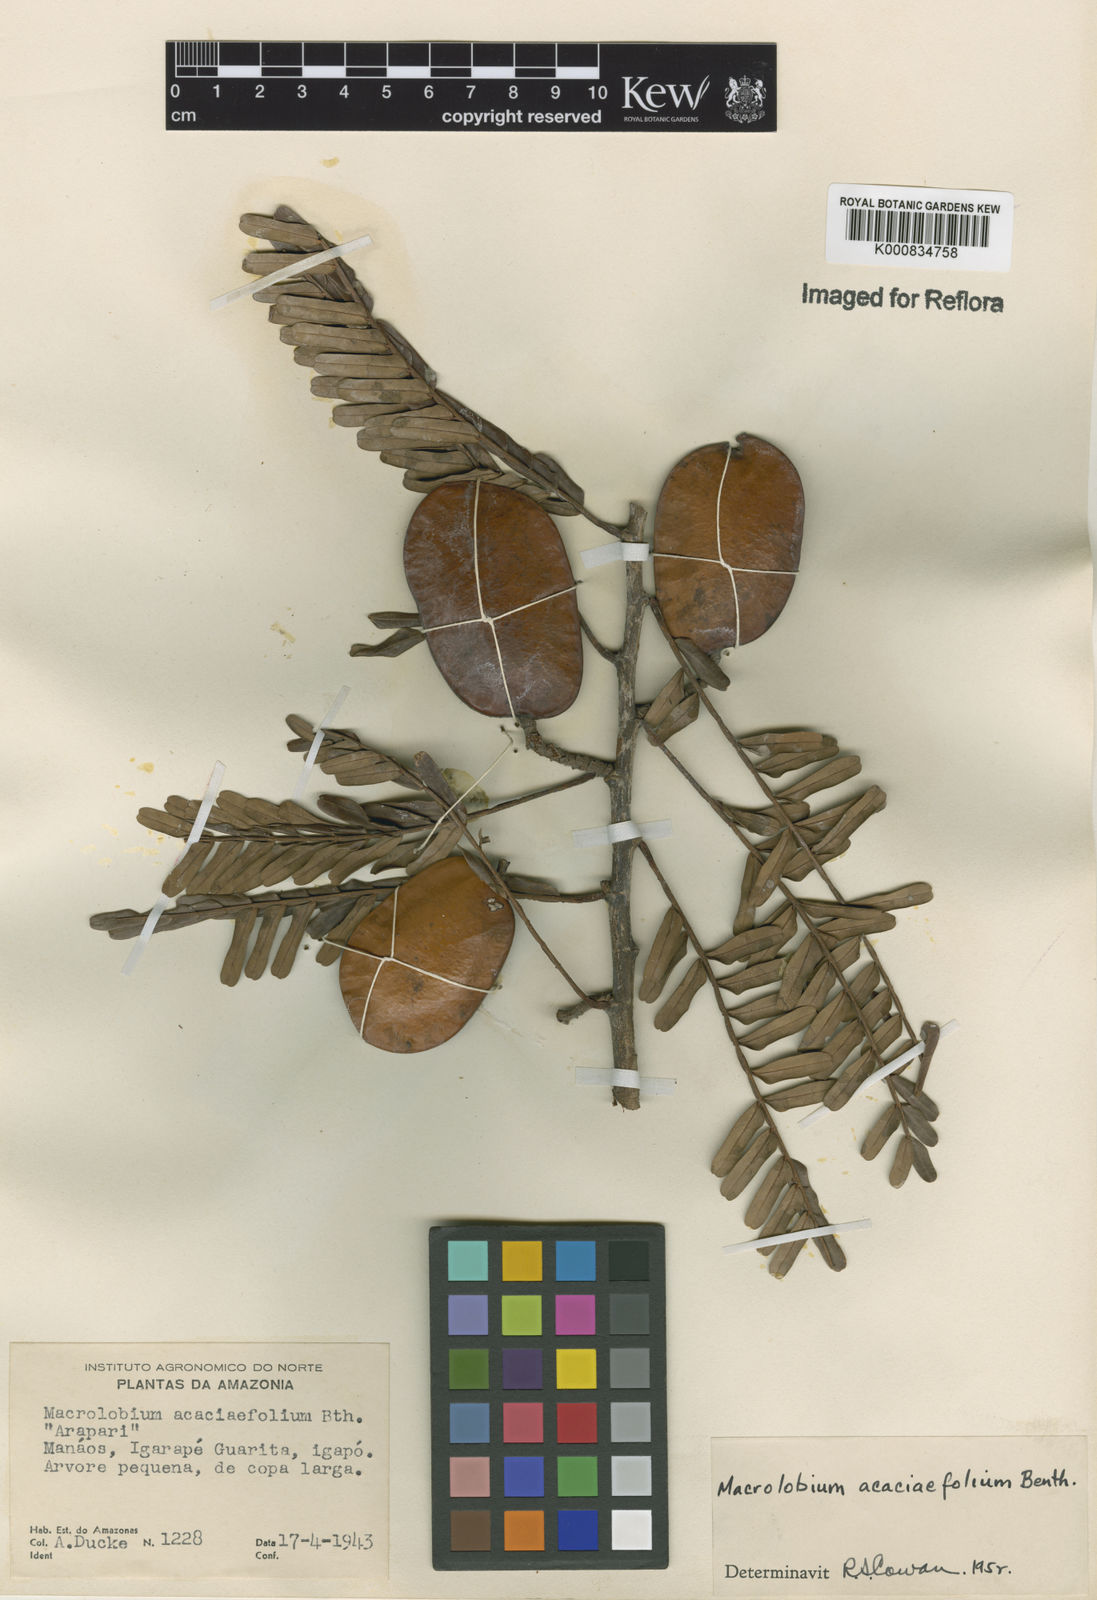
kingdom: Plantae
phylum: Tracheophyta
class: Magnoliopsida
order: Fabales
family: Fabaceae
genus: Macrolobium
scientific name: Macrolobium acaciifolium
